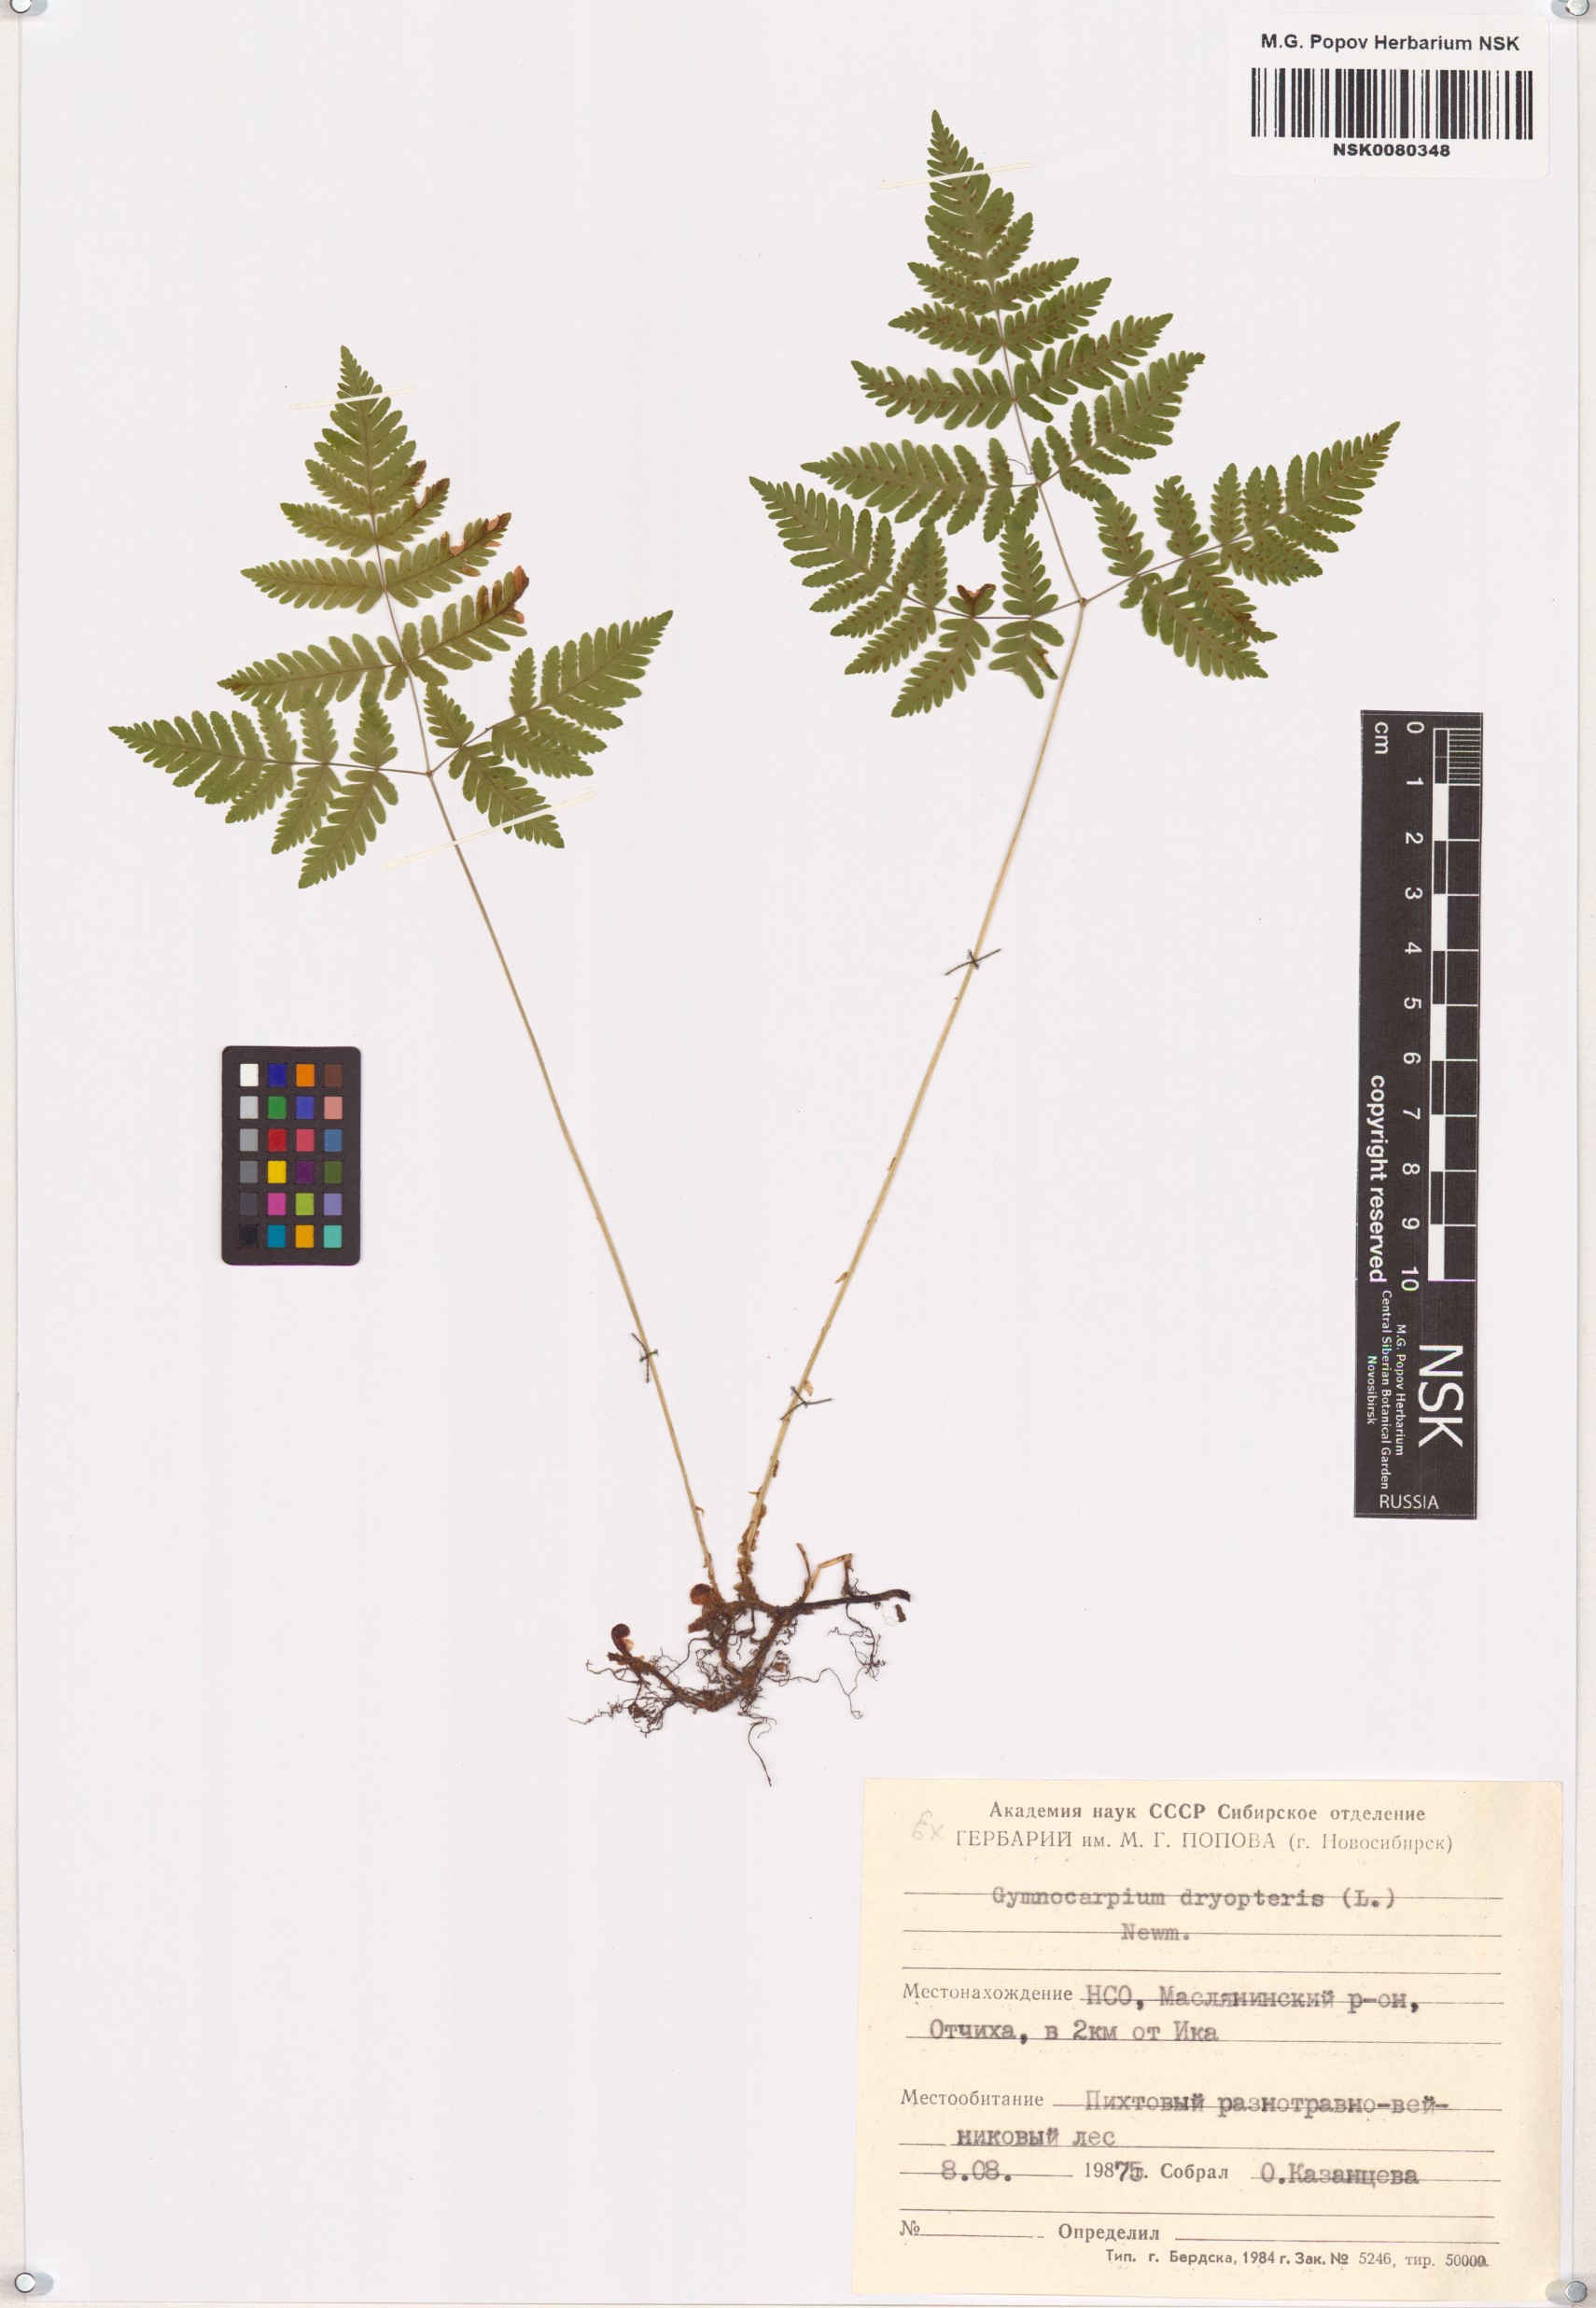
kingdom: Plantae
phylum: Tracheophyta
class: Polypodiopsida
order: Polypodiales
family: Cystopteridaceae
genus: Gymnocarpium
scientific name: Gymnocarpium dryopteris
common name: Oak fern
